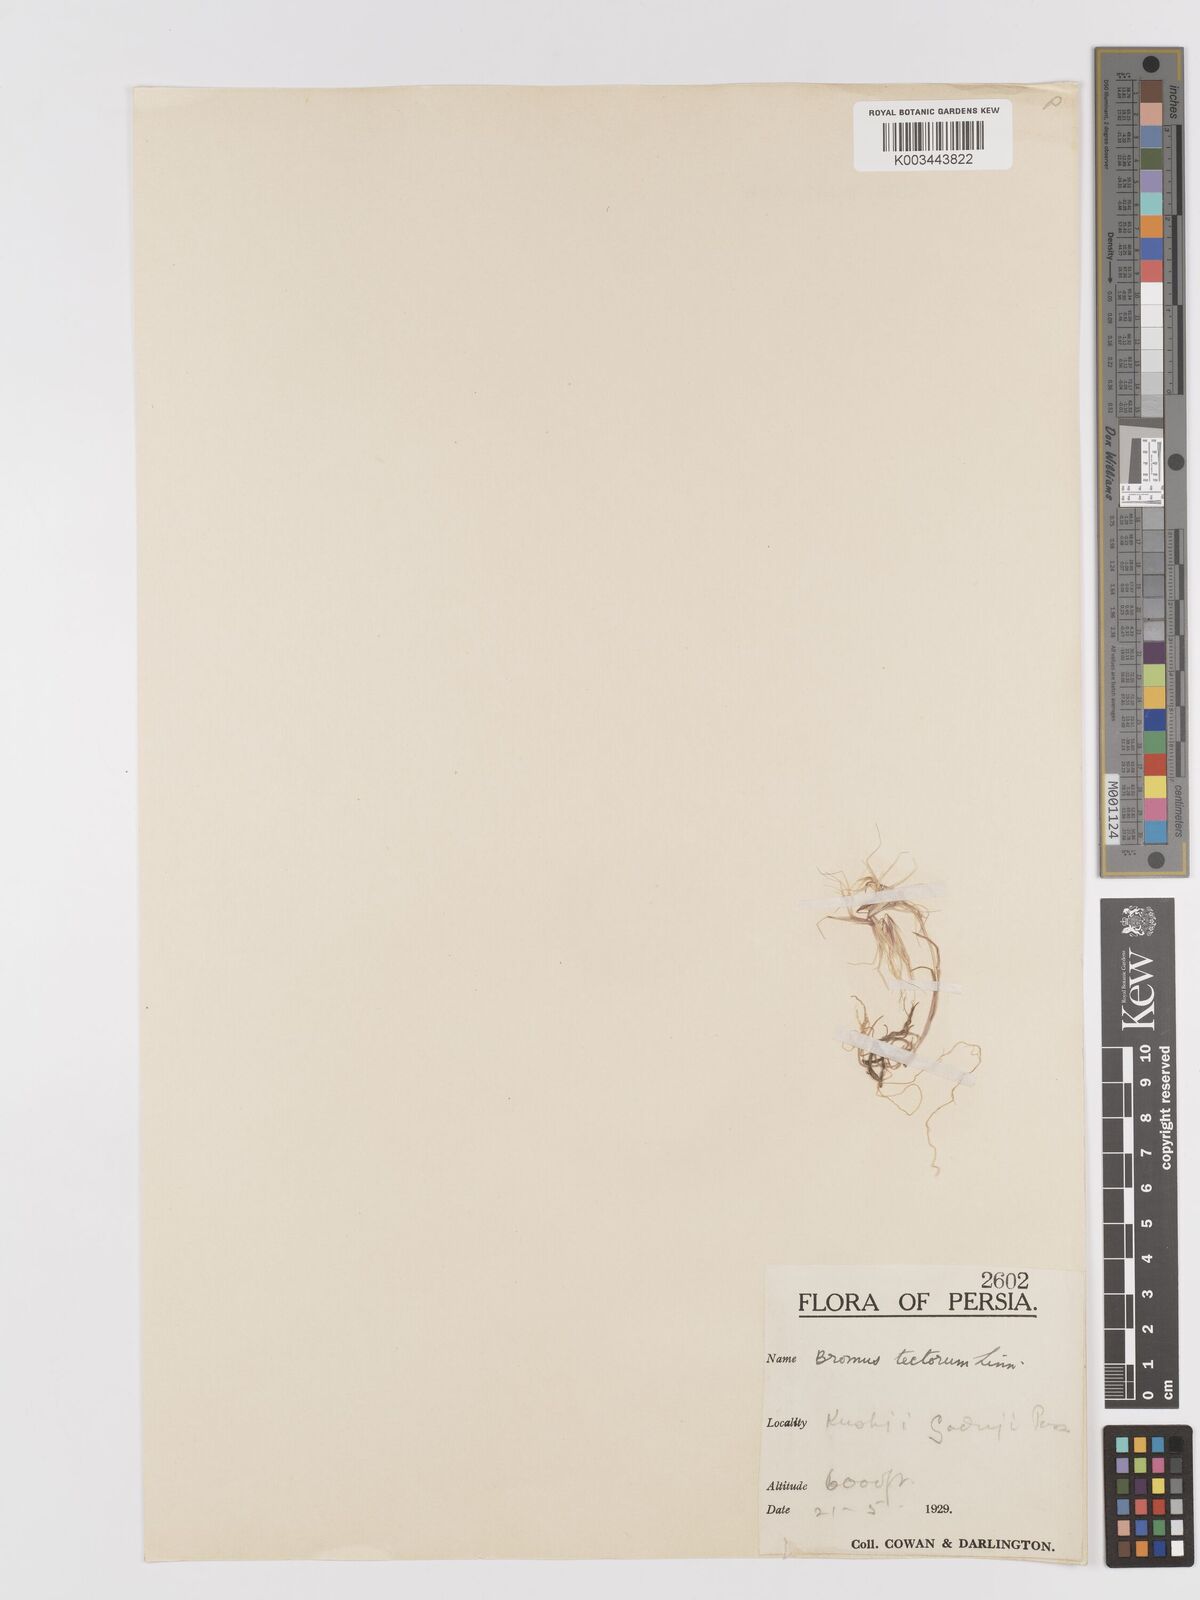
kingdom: Plantae
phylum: Tracheophyta
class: Liliopsida
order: Poales
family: Poaceae
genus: Bromus
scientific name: Bromus tectorum
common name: Cheatgrass
